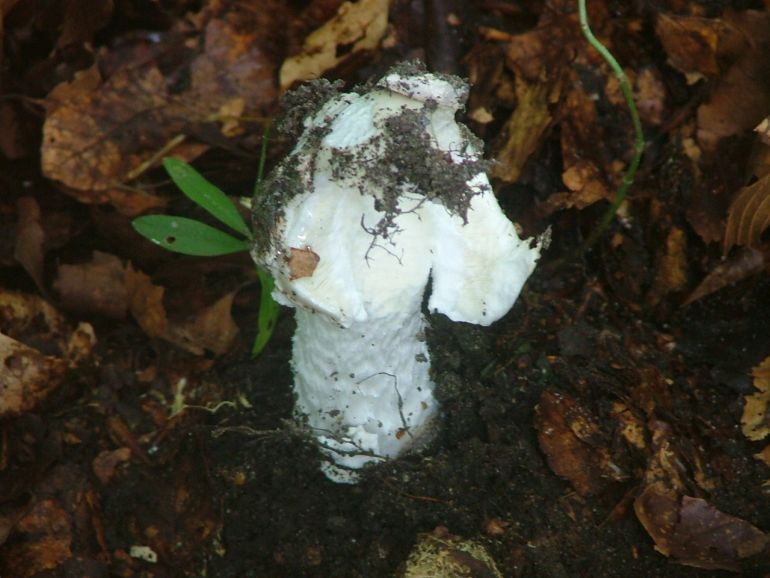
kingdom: Fungi
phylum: Basidiomycota
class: Agaricomycetes
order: Agaricales
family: Amanitaceae
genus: Amanita
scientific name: Amanita
